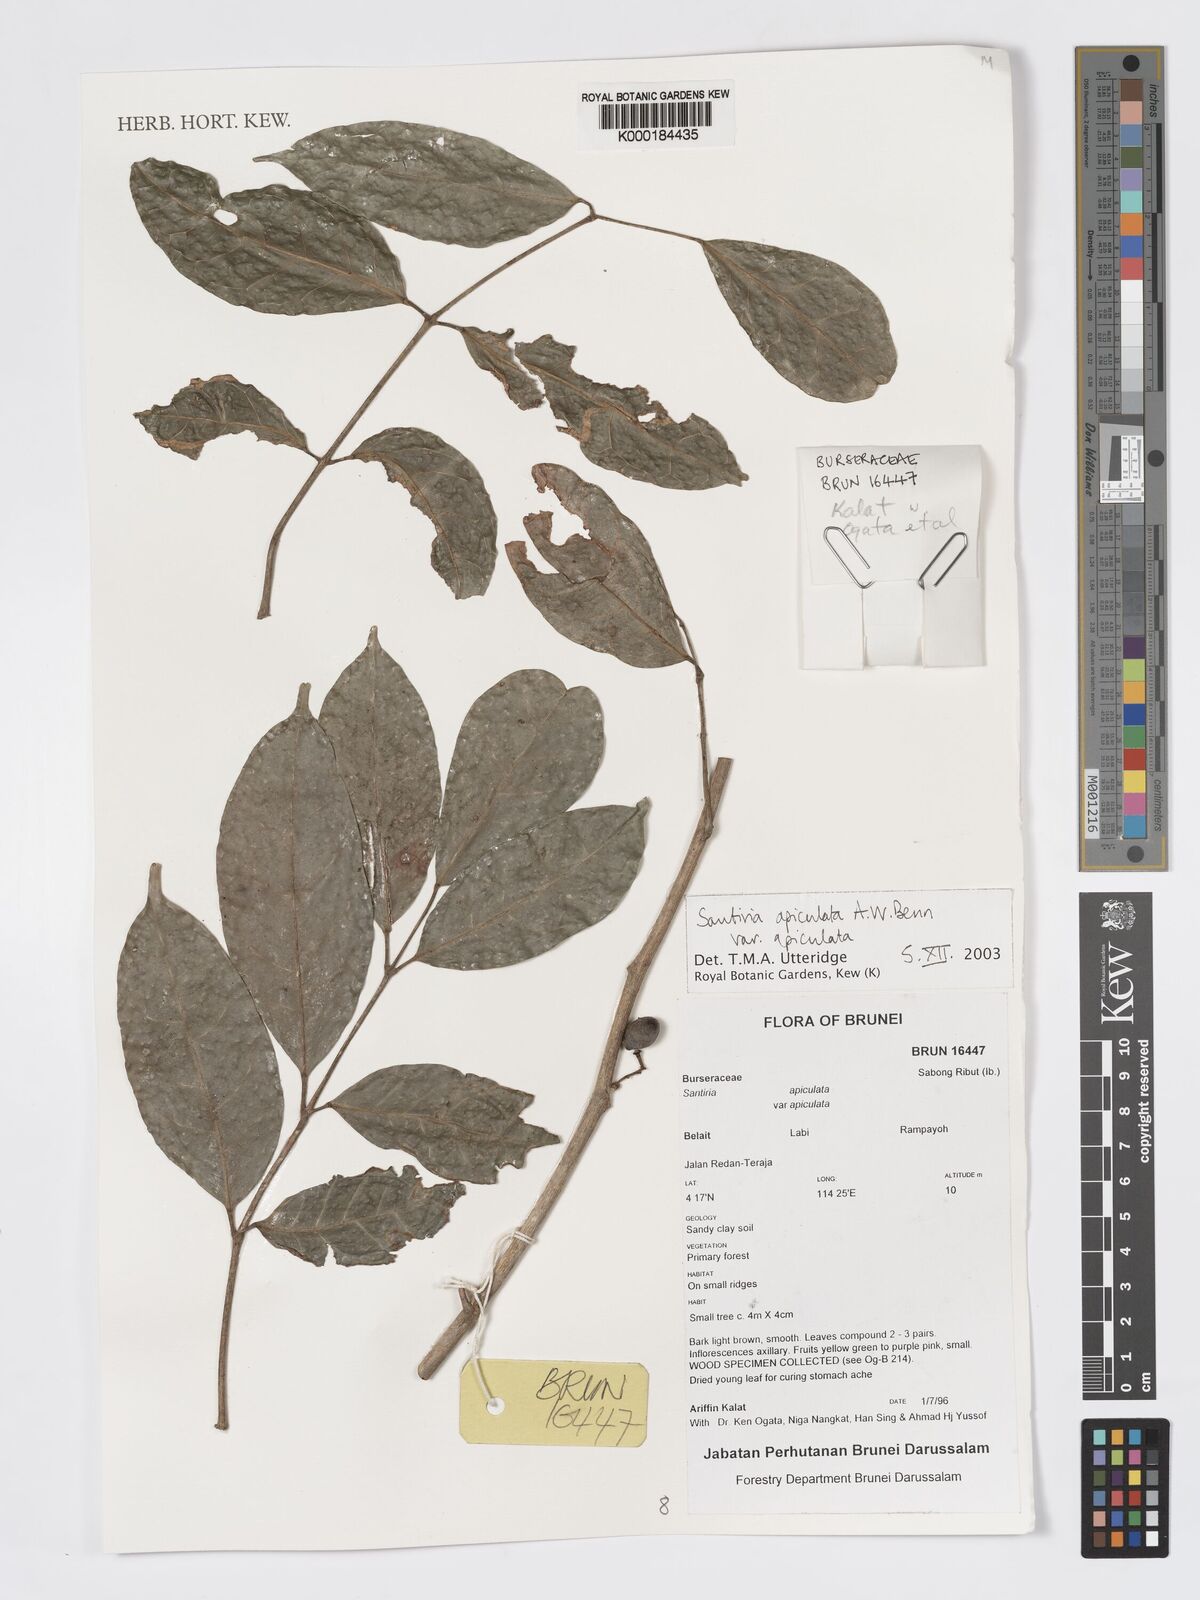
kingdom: Plantae
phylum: Tracheophyta
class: Magnoliopsida
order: Sapindales
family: Burseraceae
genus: Santiria
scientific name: Santiria apiculata
